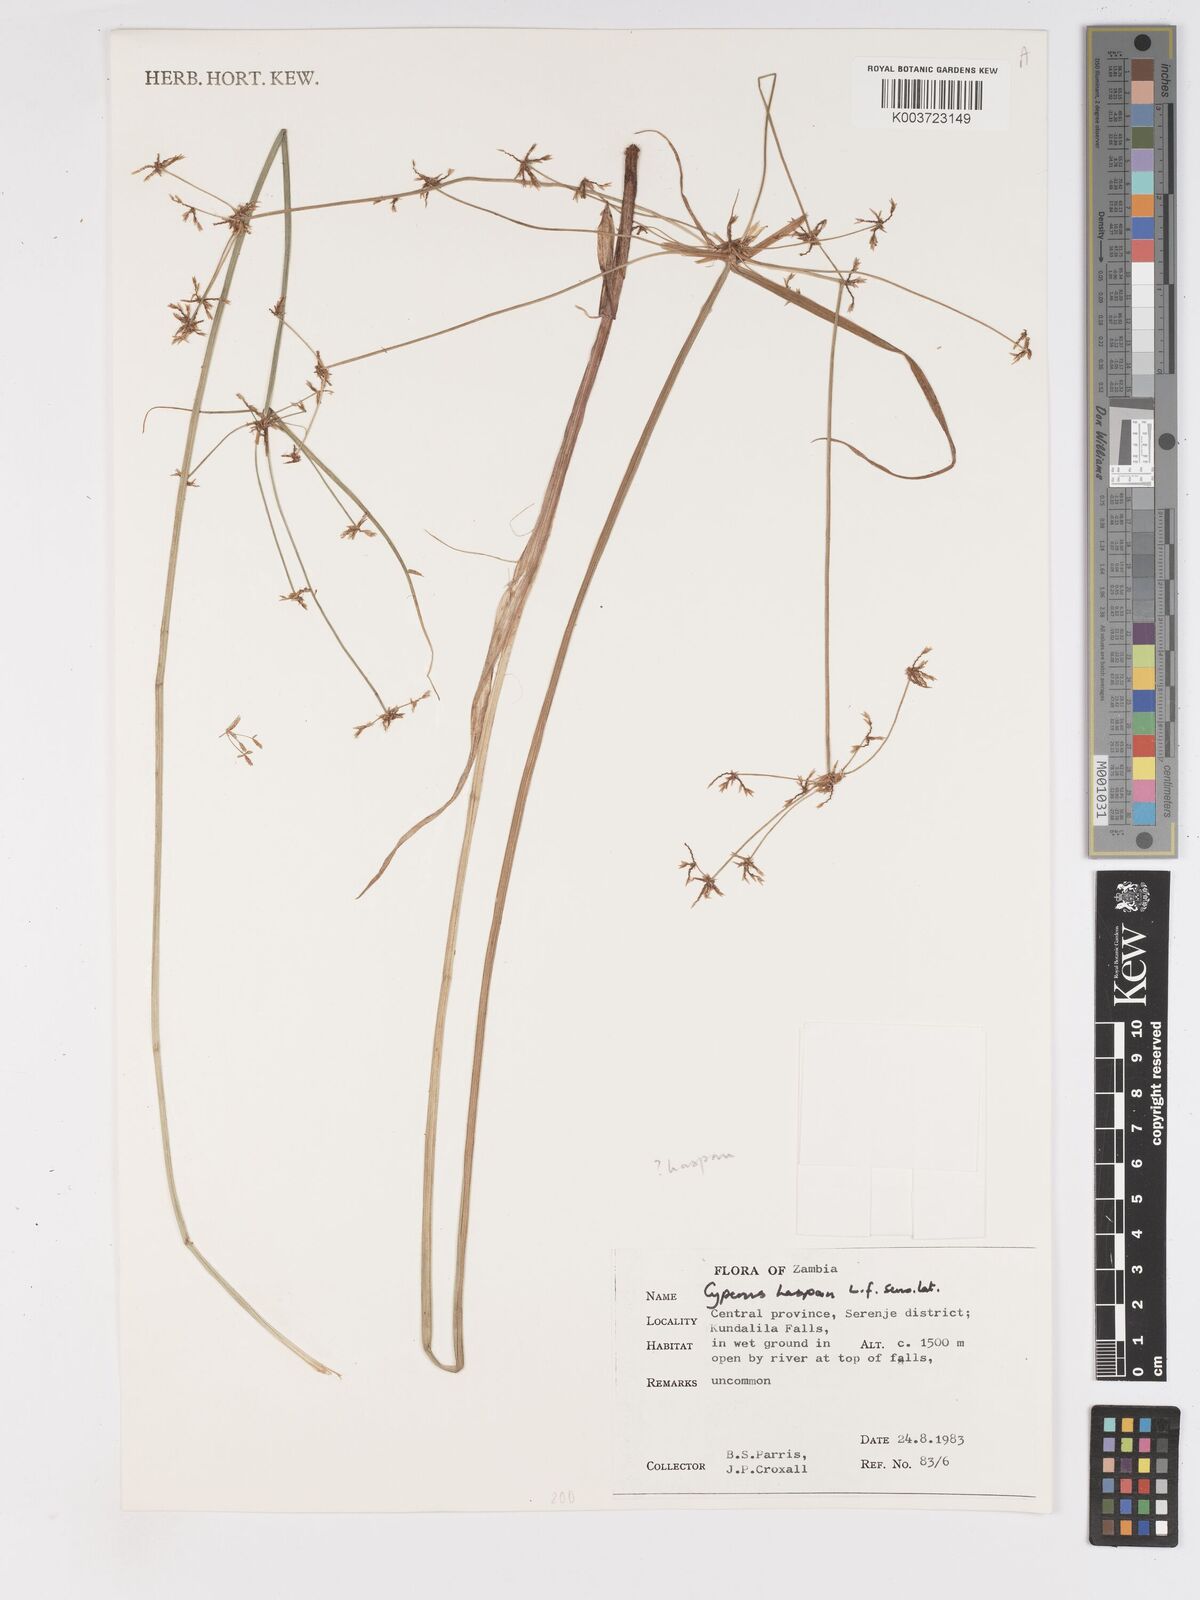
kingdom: Plantae
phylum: Tracheophyta
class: Liliopsida
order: Poales
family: Cyperaceae
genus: Cyperus
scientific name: Cyperus haspan
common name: Haspan flatsedge
